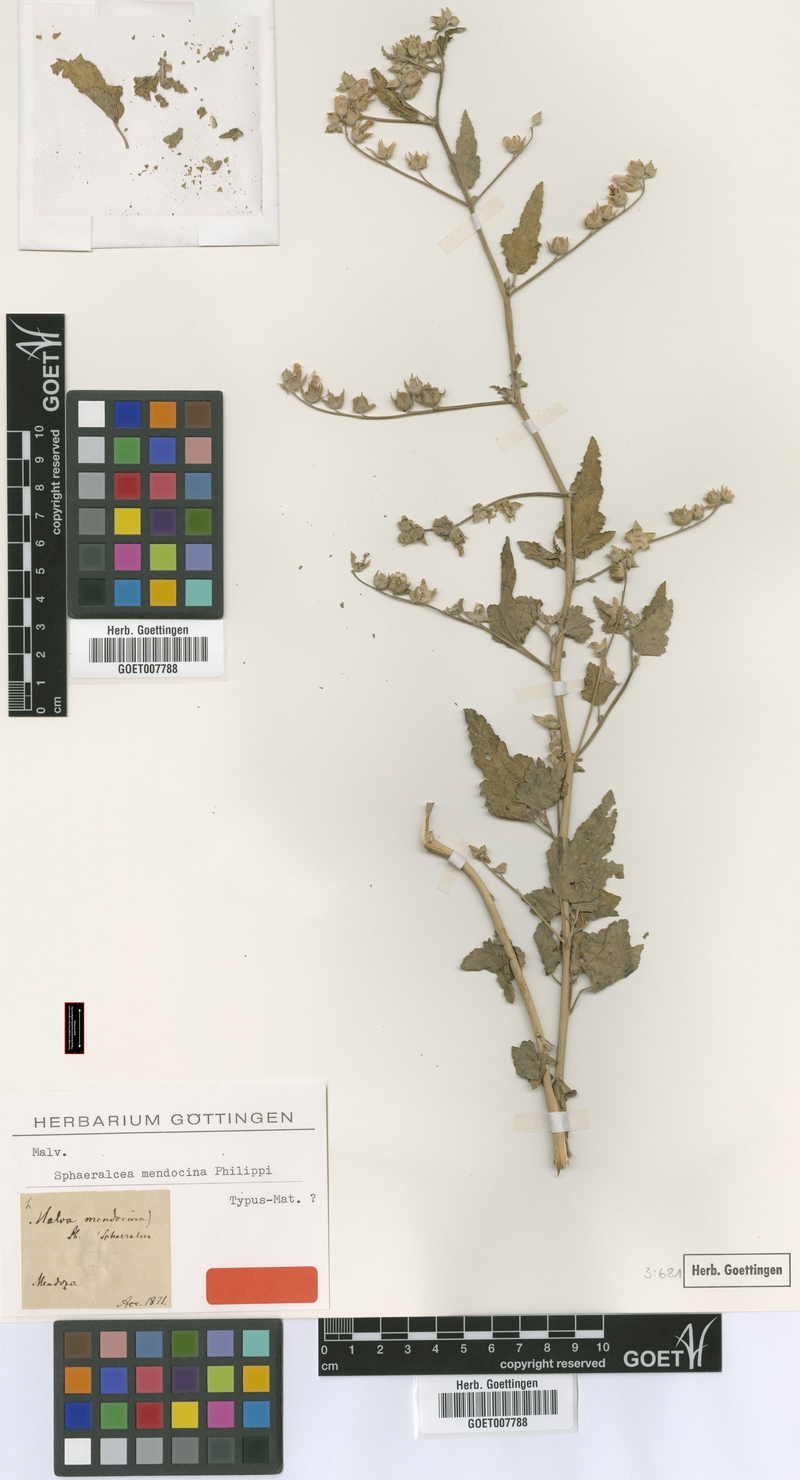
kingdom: Plantae
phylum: Tracheophyta
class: Magnoliopsida
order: Malvales
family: Malvaceae
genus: Sphaeralcea
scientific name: Sphaeralcea mendocina
